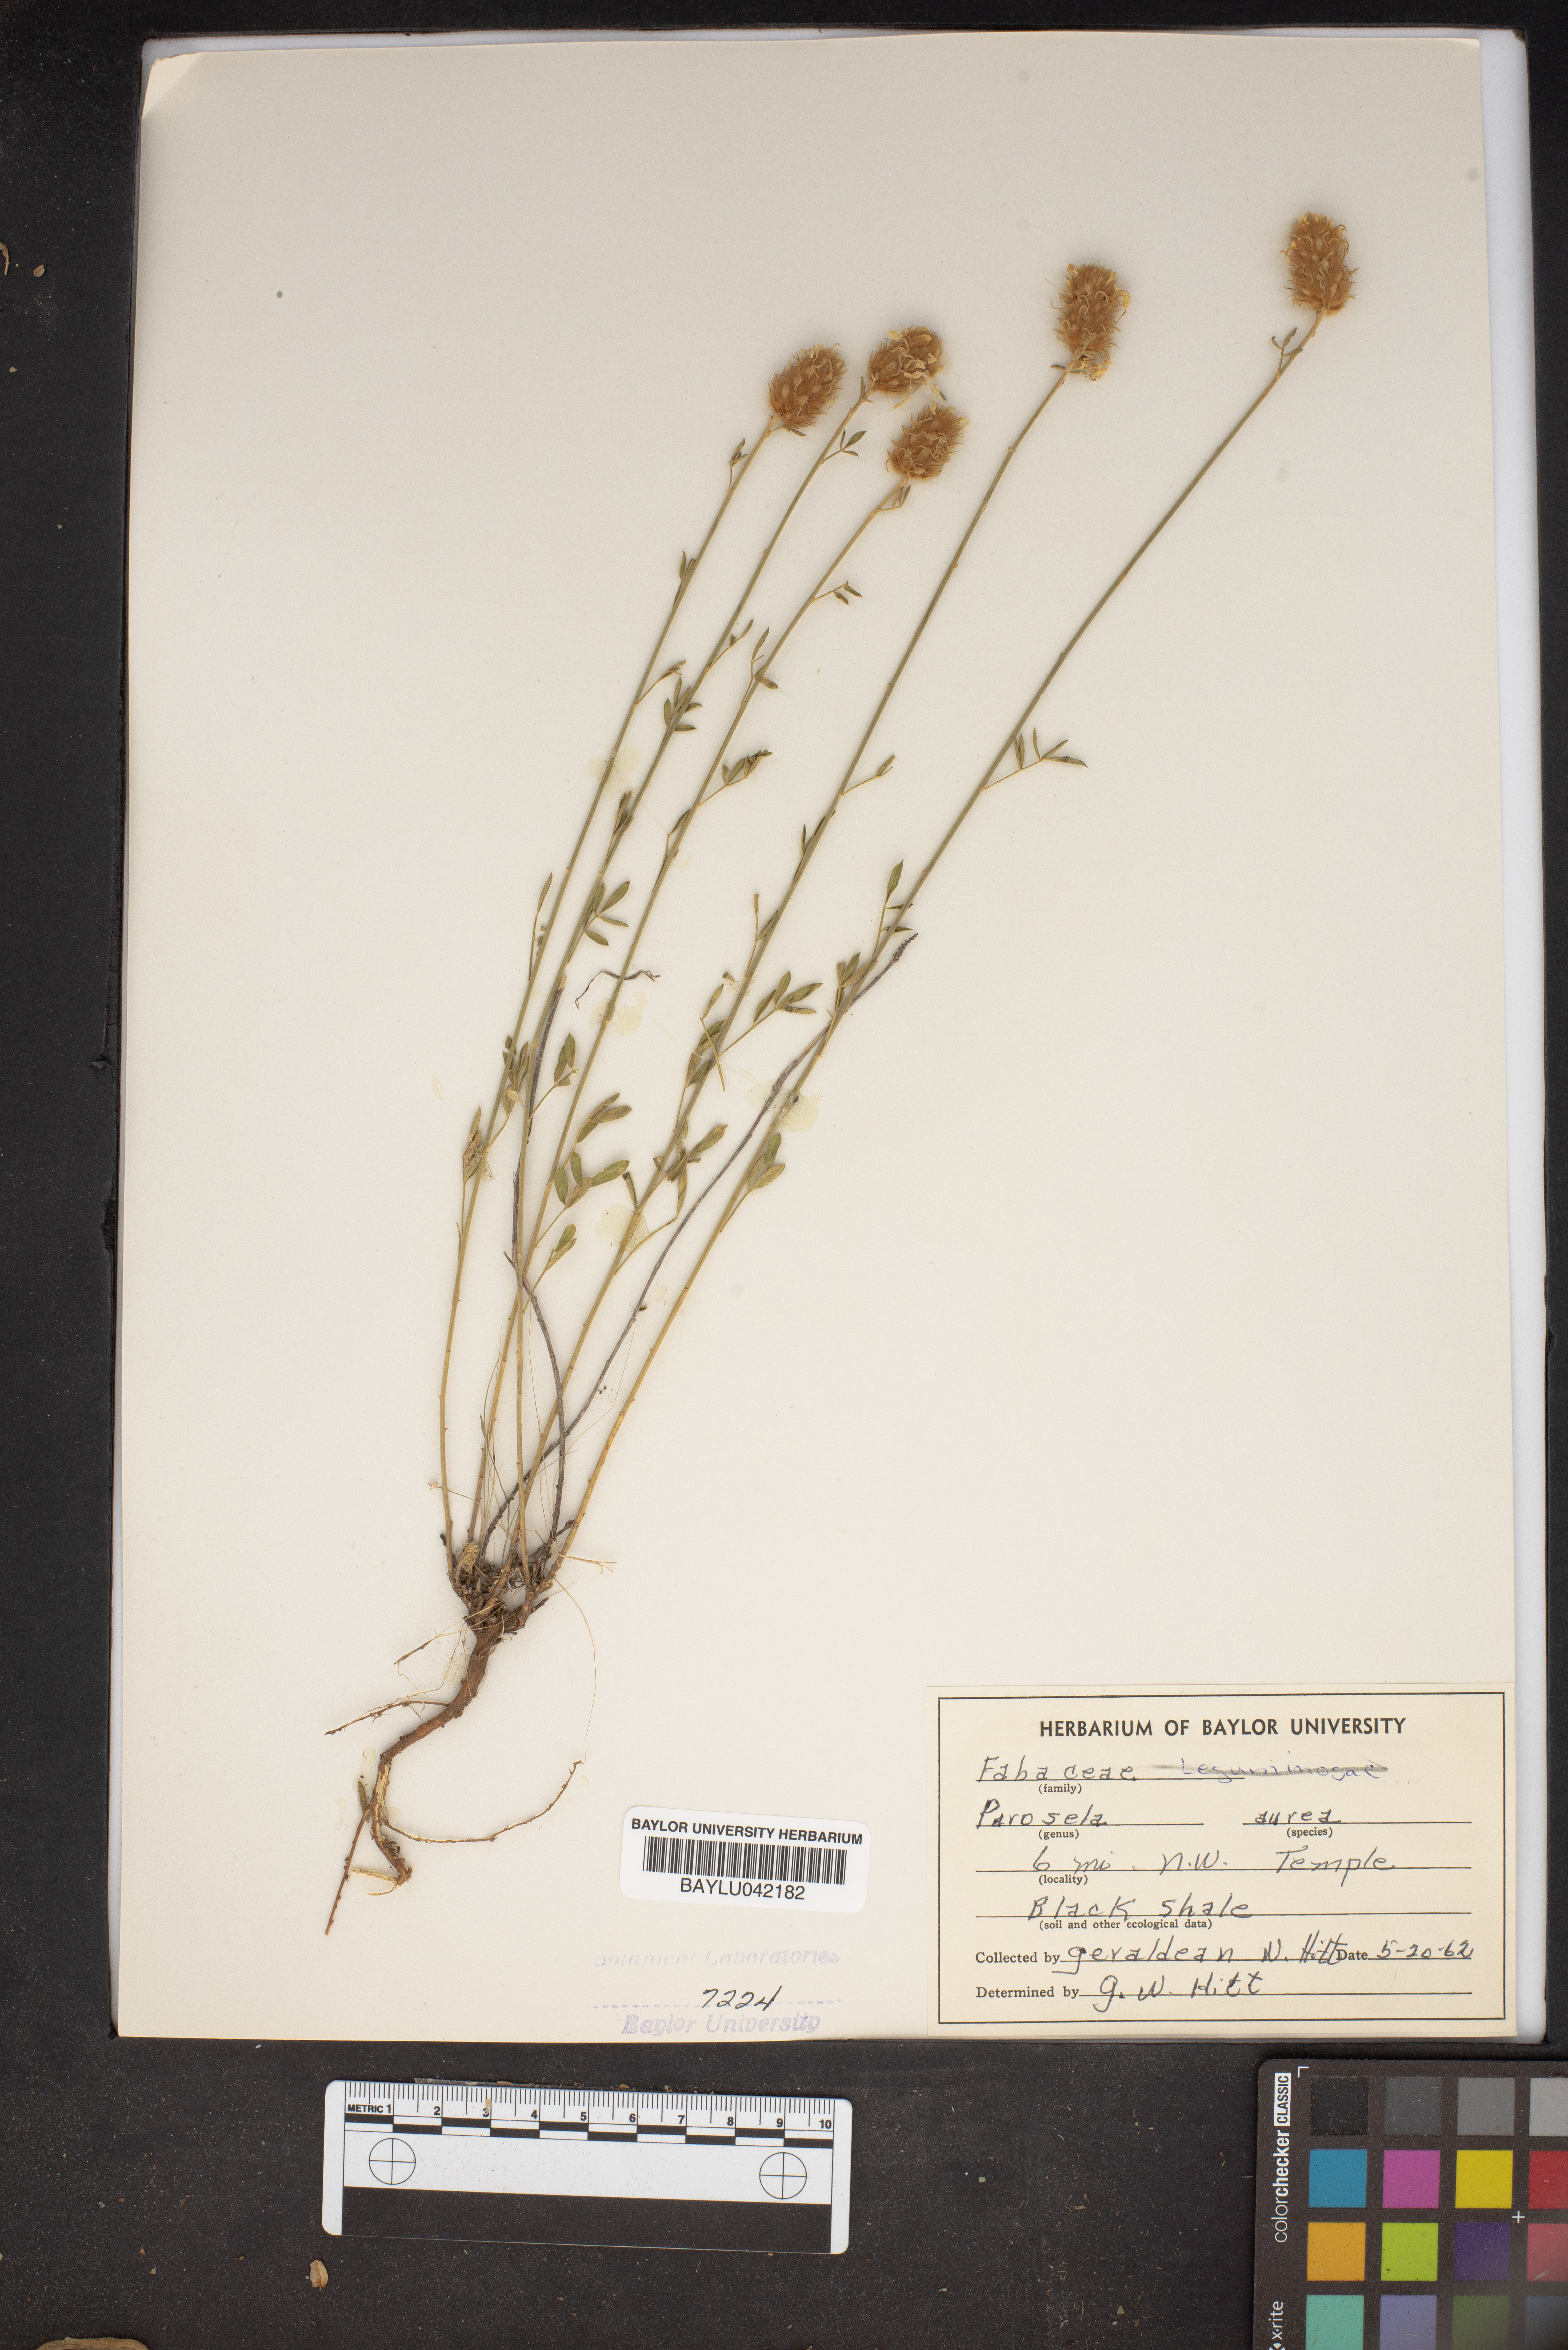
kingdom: Plantae
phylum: Tracheophyta
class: Magnoliopsida
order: Fabales
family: Fabaceae
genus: Dalea
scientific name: Dalea aurea
